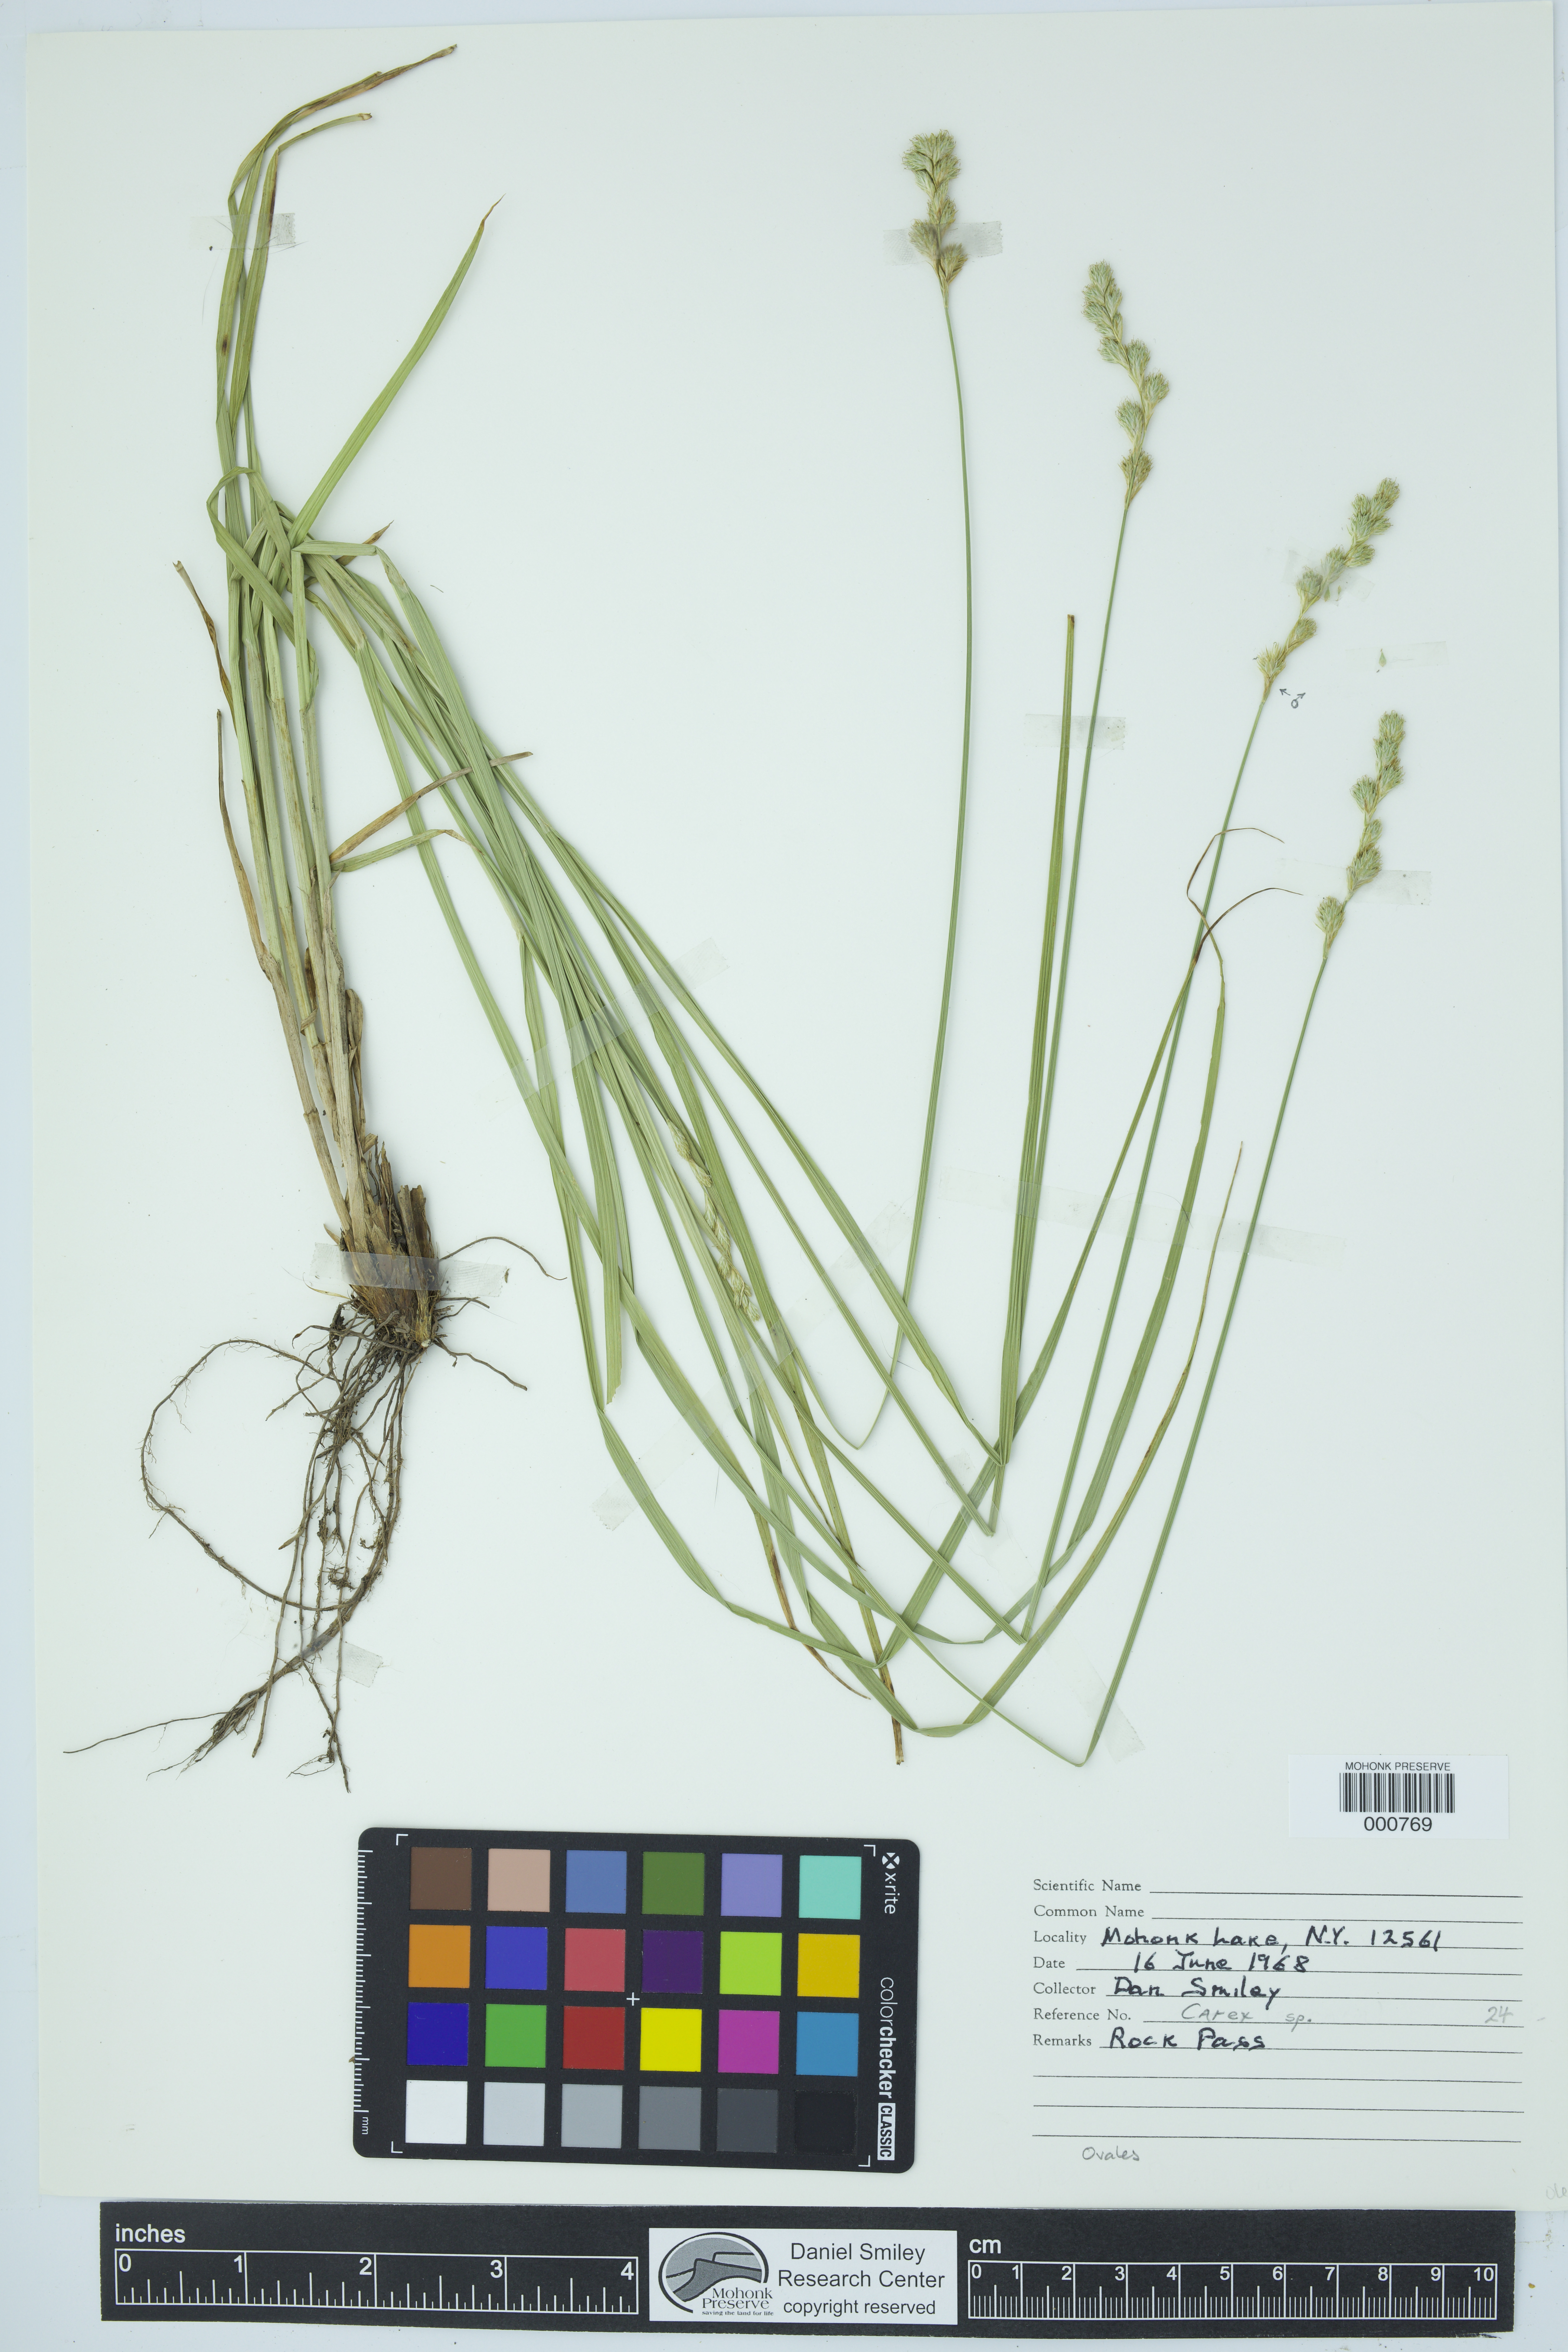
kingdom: Plantae
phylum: Tracheophyta
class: Liliopsida
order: Poales
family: Cyperaceae
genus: Carex
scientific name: Carex
